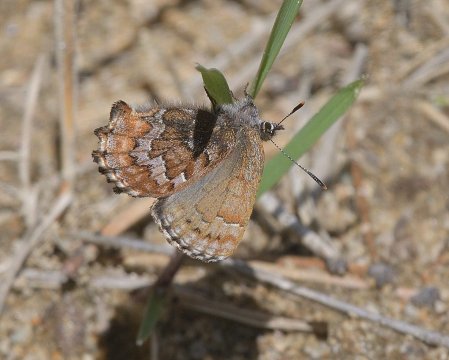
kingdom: Animalia
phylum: Arthropoda
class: Insecta
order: Lepidoptera
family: Lycaenidae
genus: Incisalia
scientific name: Incisalia niphon
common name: Eastern Pine Elfin
